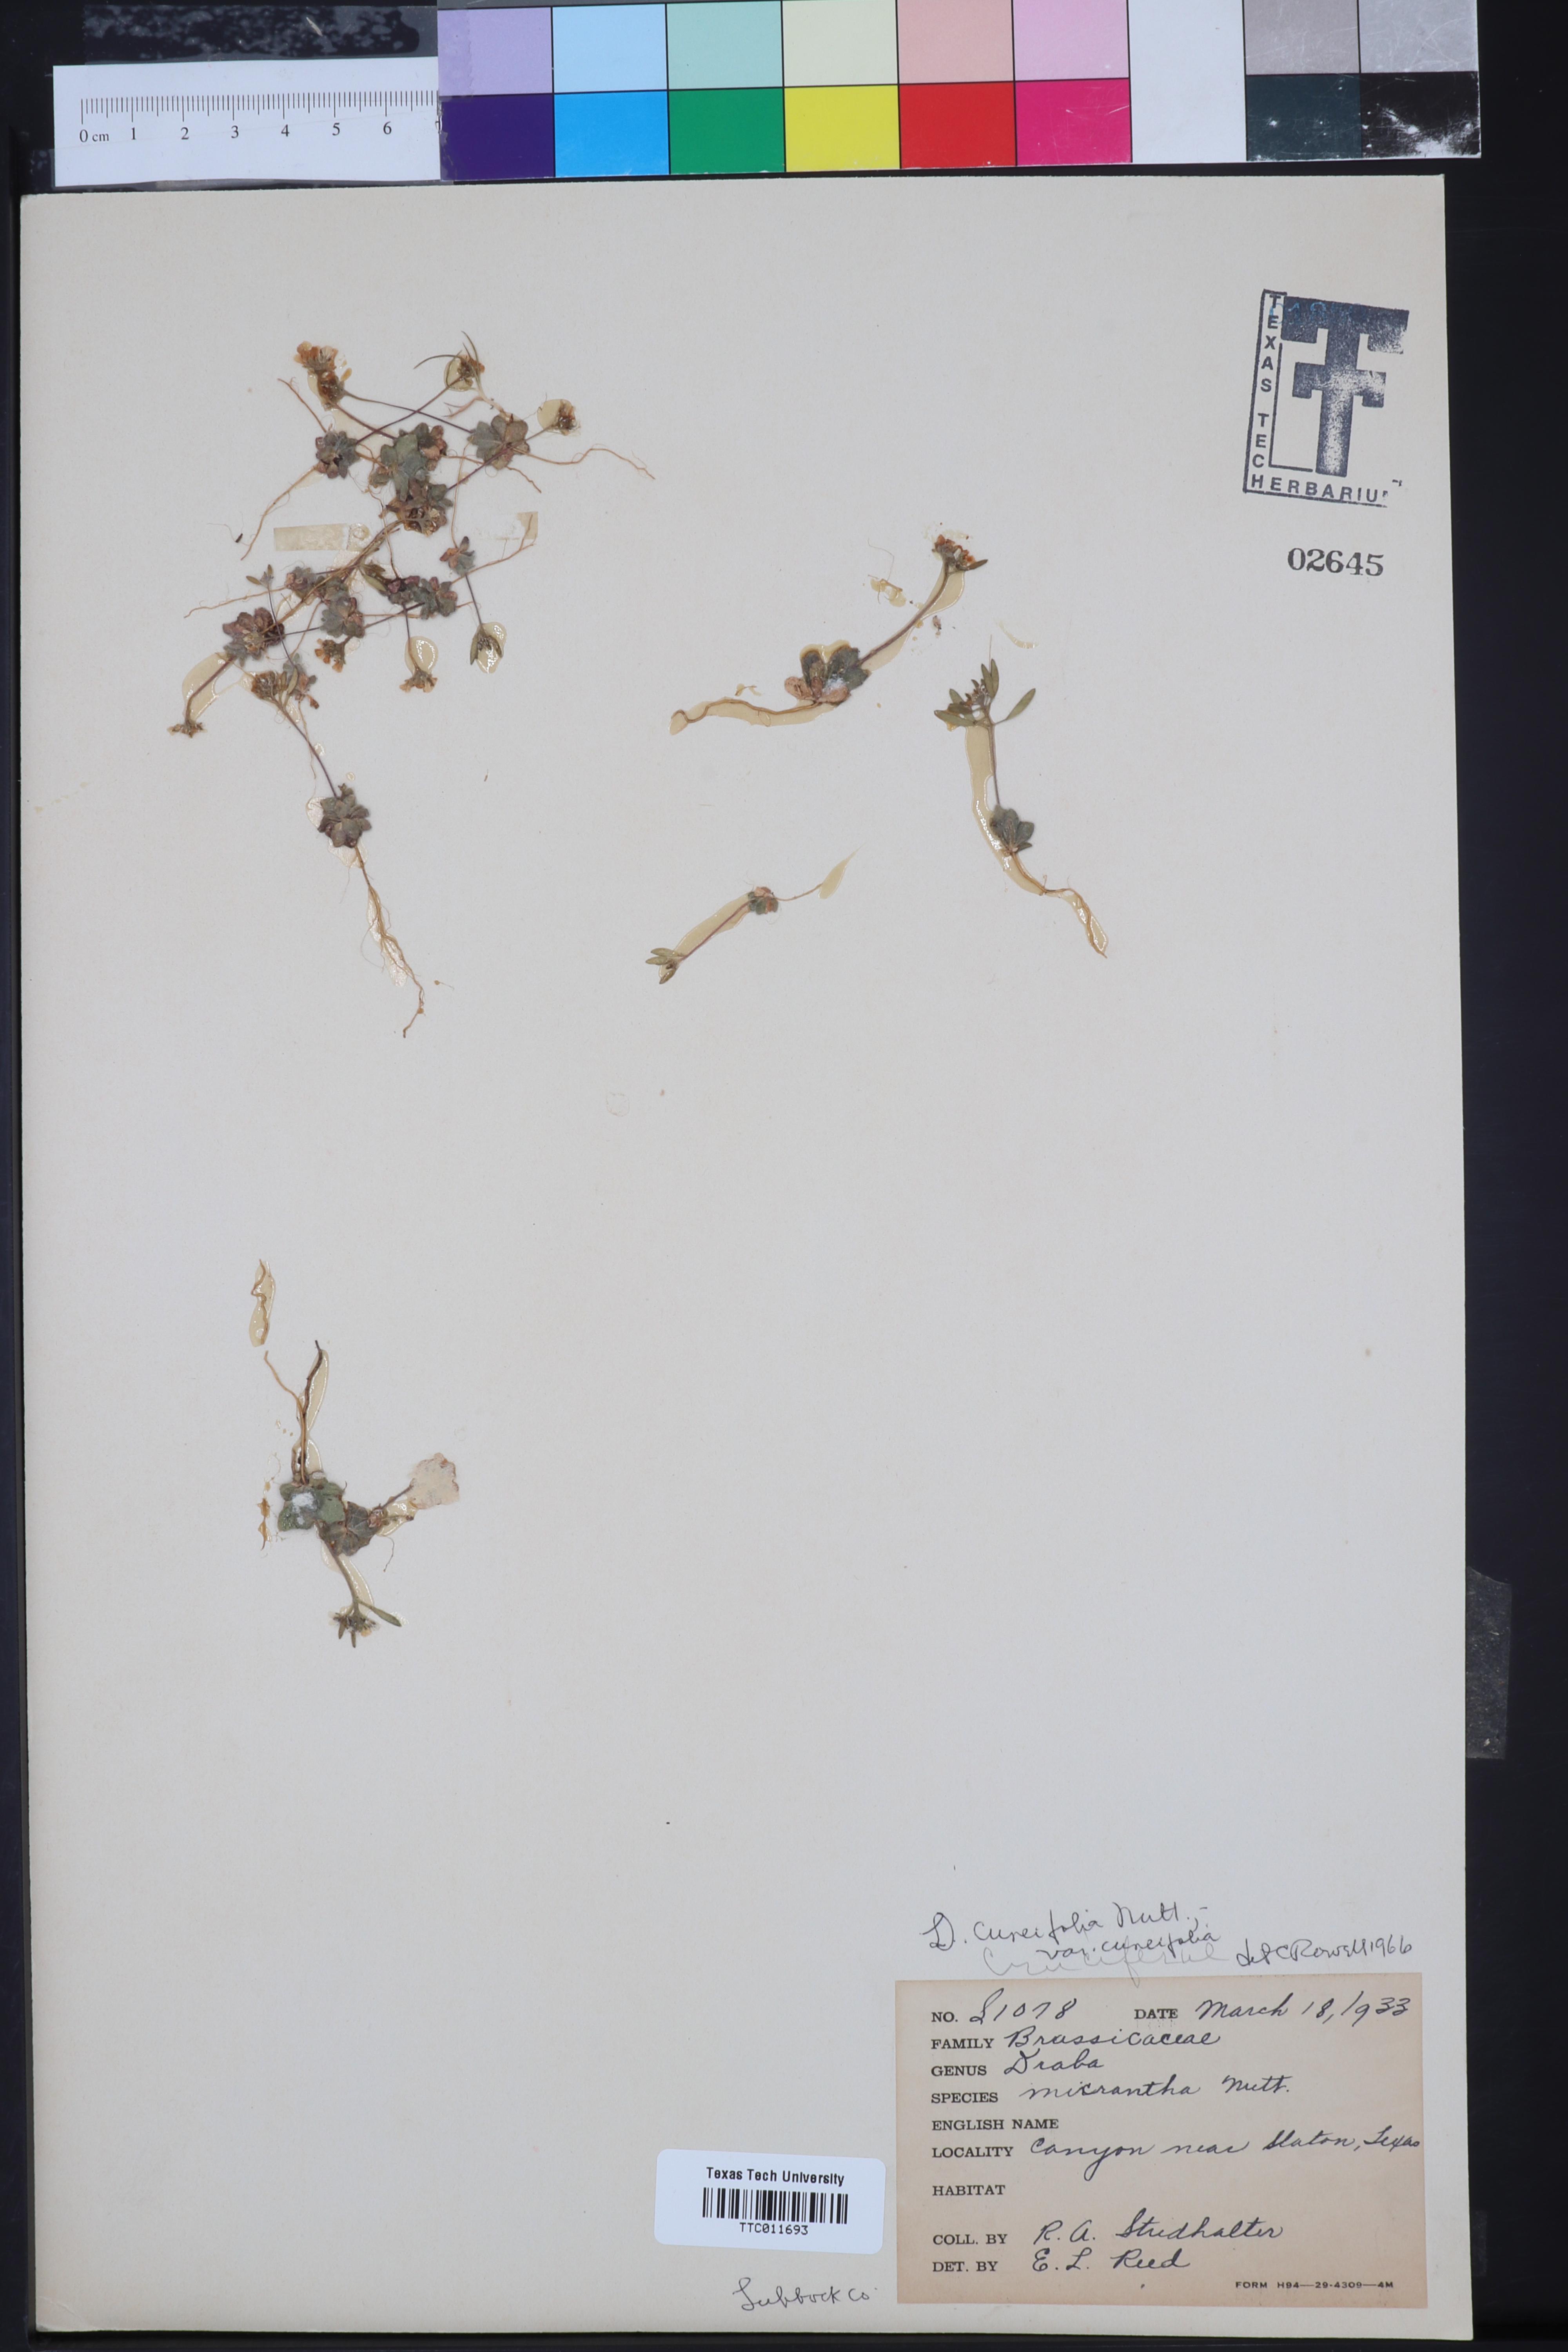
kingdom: Plantae
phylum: Tracheophyta
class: Magnoliopsida
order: Brassicales
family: Brassicaceae
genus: Tomostima
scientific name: Tomostima cuneifolia
